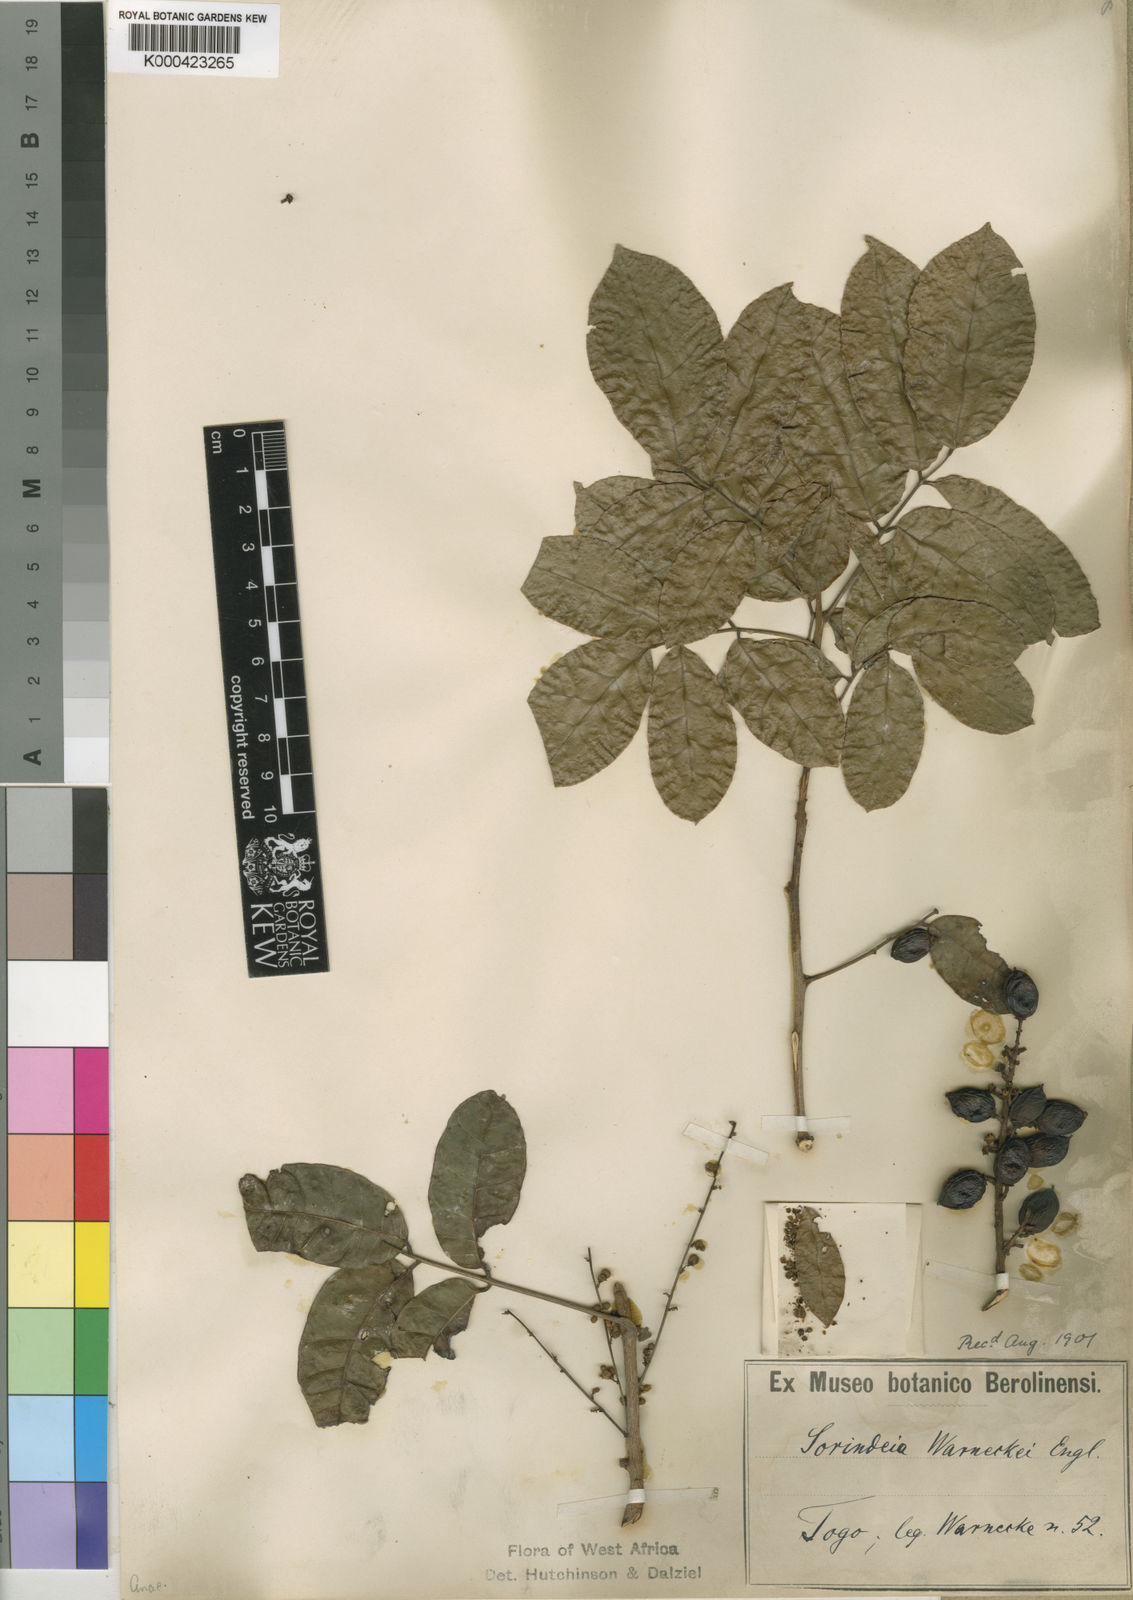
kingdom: Plantae
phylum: Tracheophyta
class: Magnoliopsida
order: Sapindales
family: Anacardiaceae
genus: Sorindeia
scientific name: Sorindeia grandifolia
